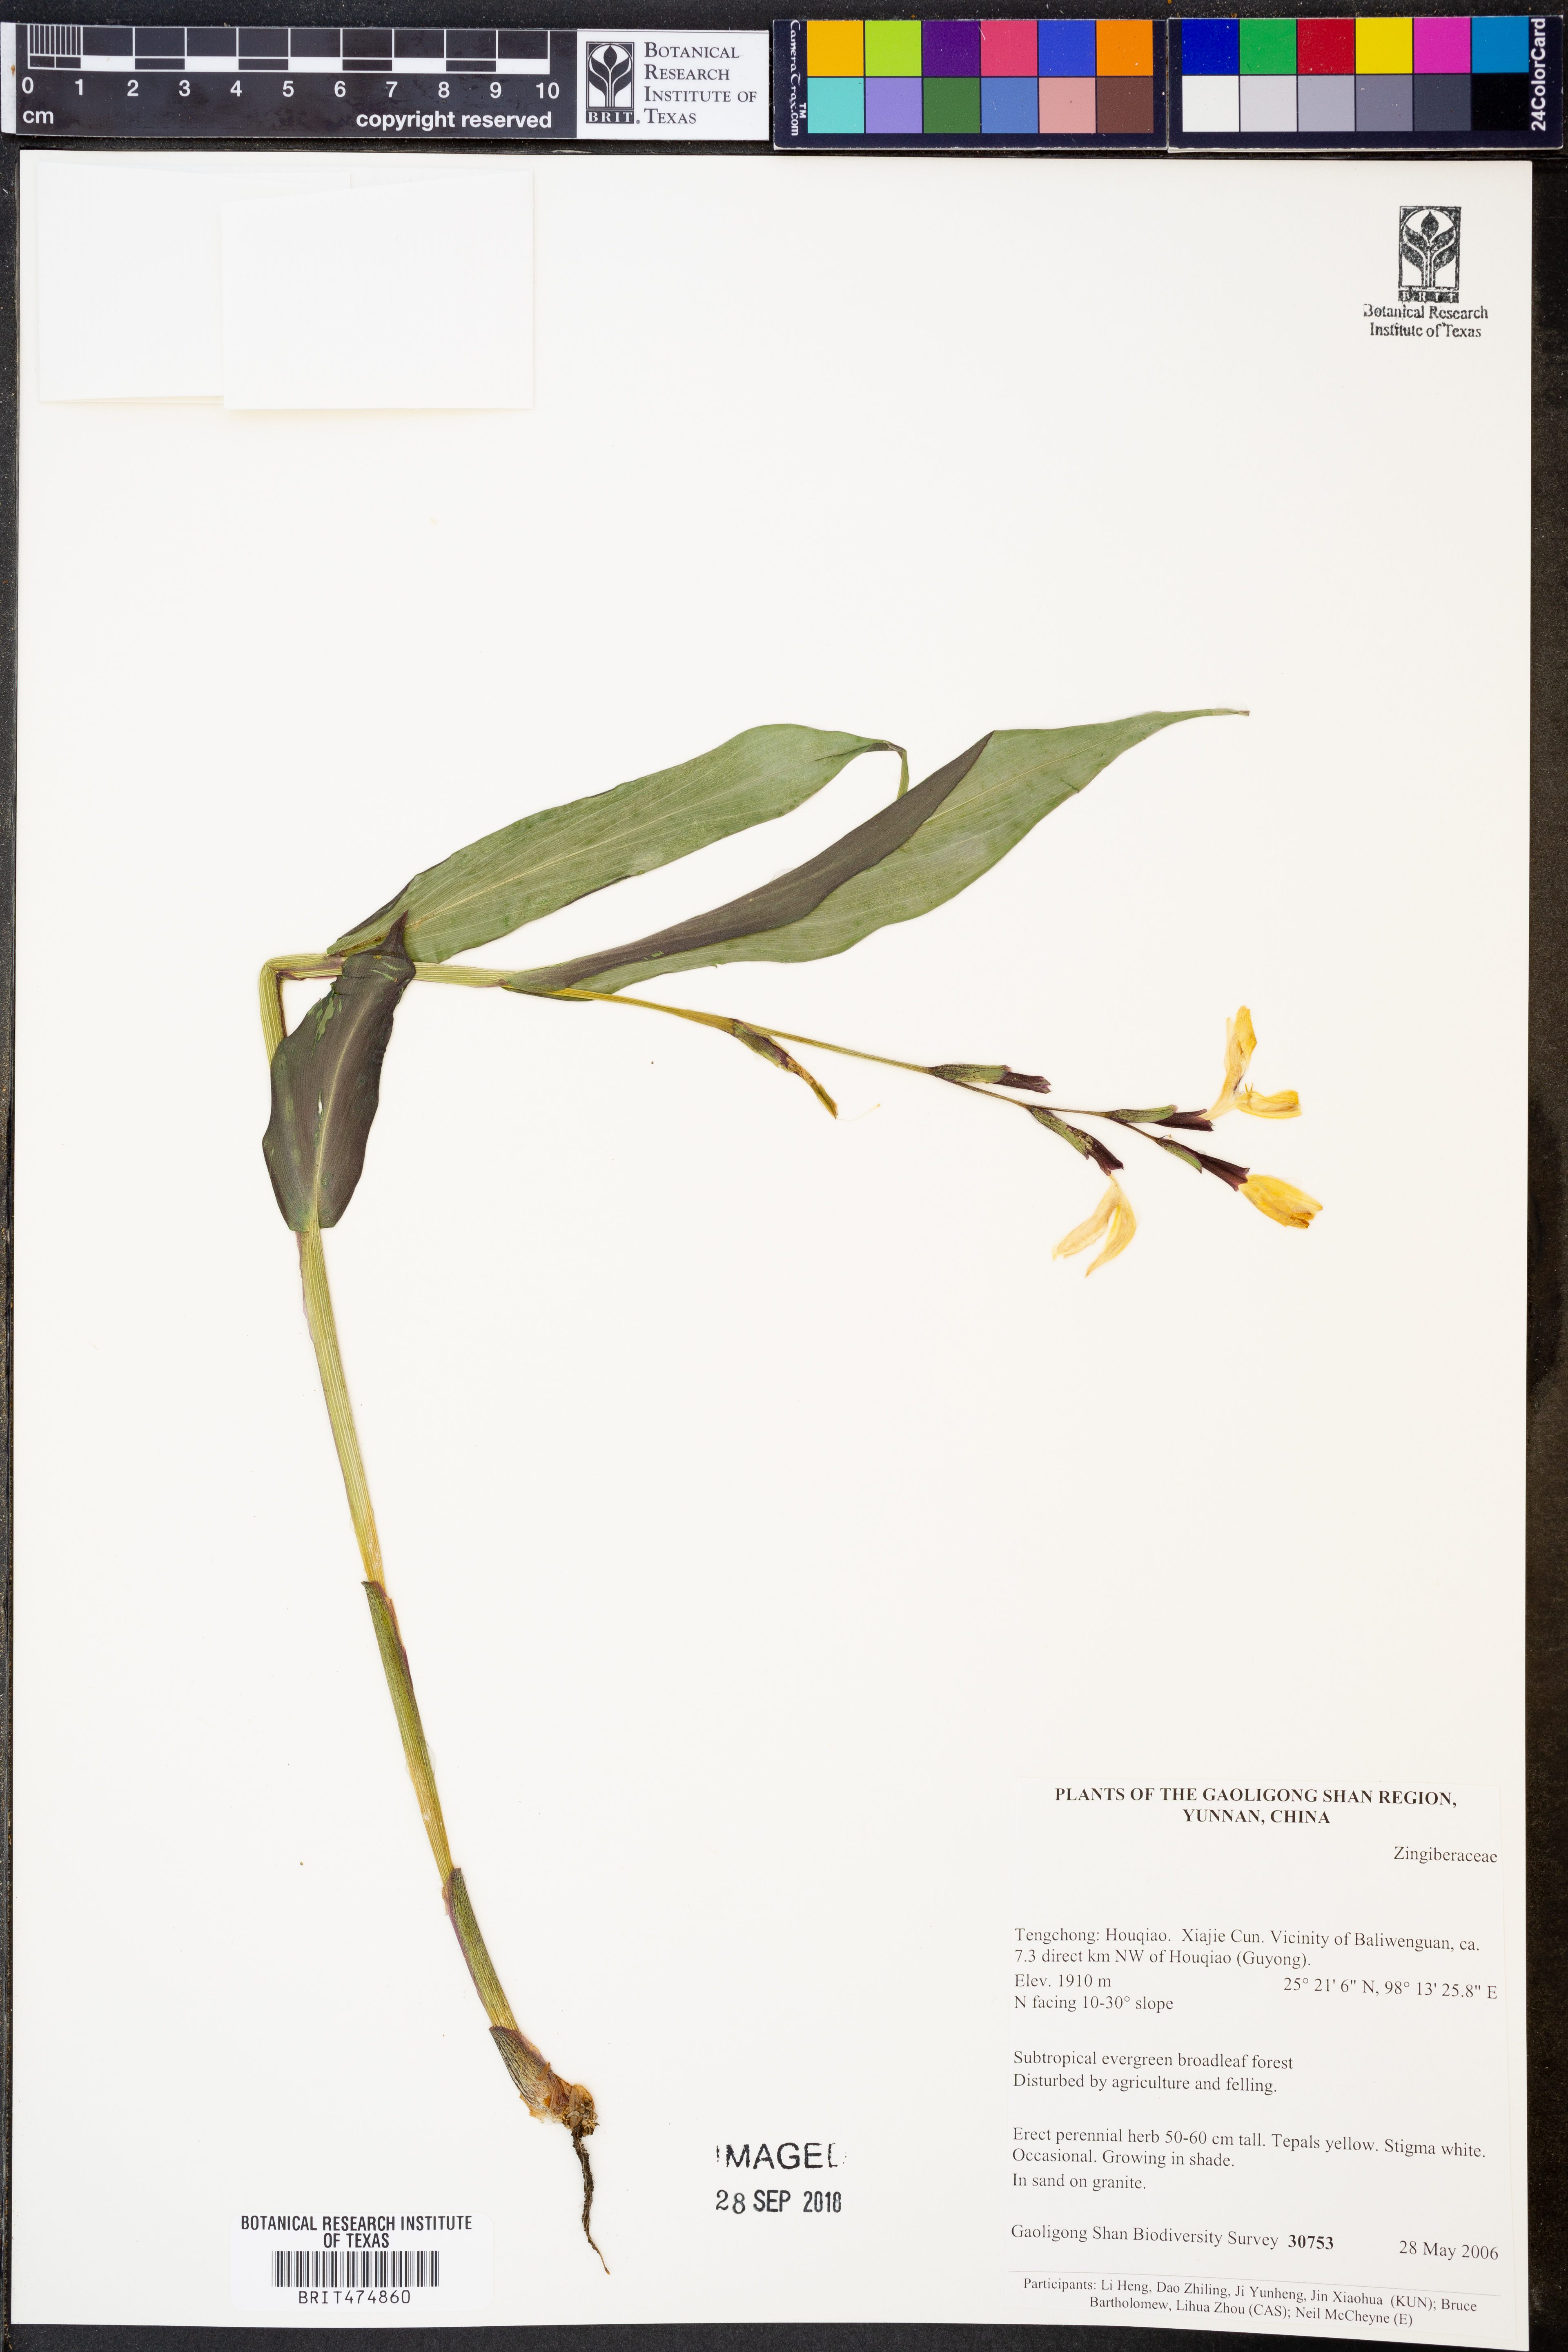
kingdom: Plantae
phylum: Tracheophyta
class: Liliopsida
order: Zingiberales
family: Zingiberaceae
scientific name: Zingiberaceae
